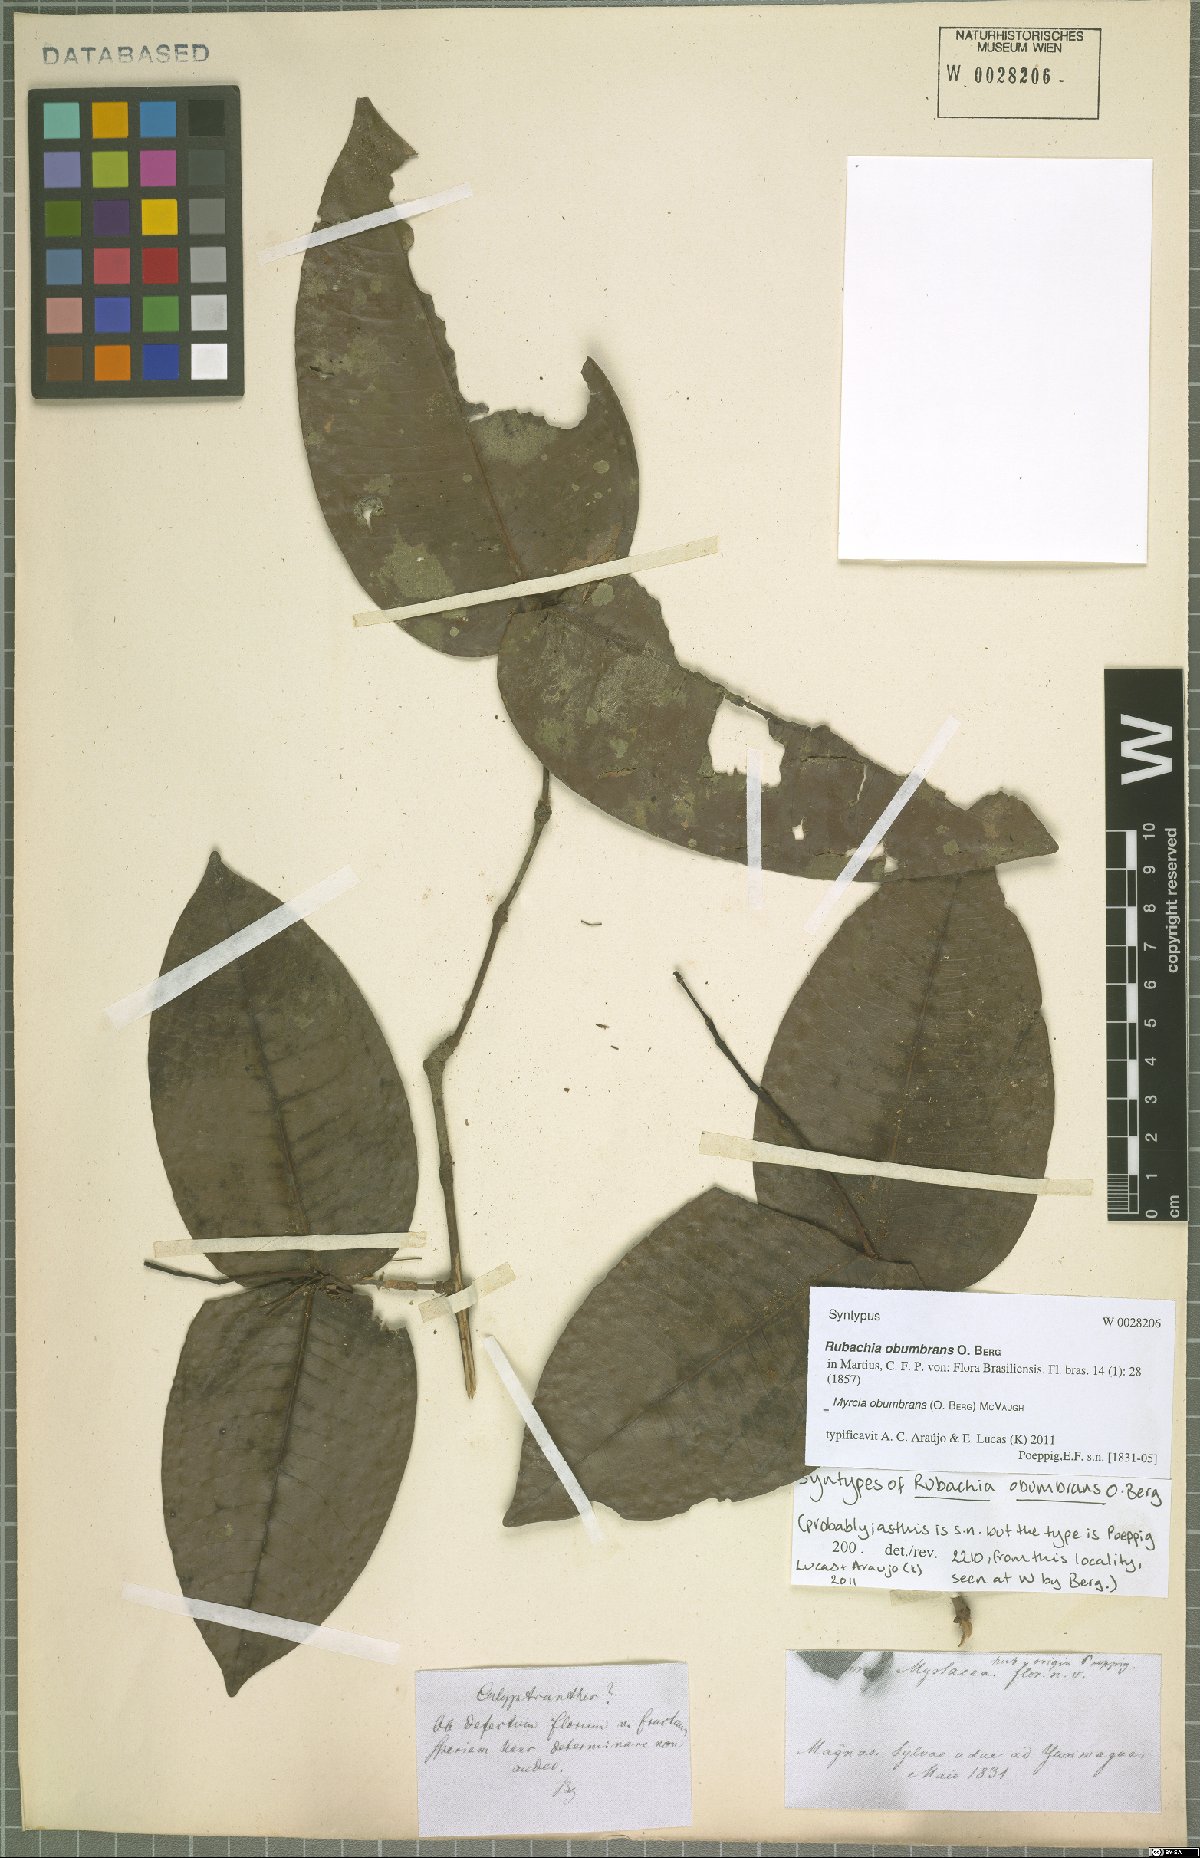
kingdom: Plantae
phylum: Tracheophyta
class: Magnoliopsida
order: Myrtales
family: Myrtaceae
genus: Myrcia
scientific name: Myrcia
